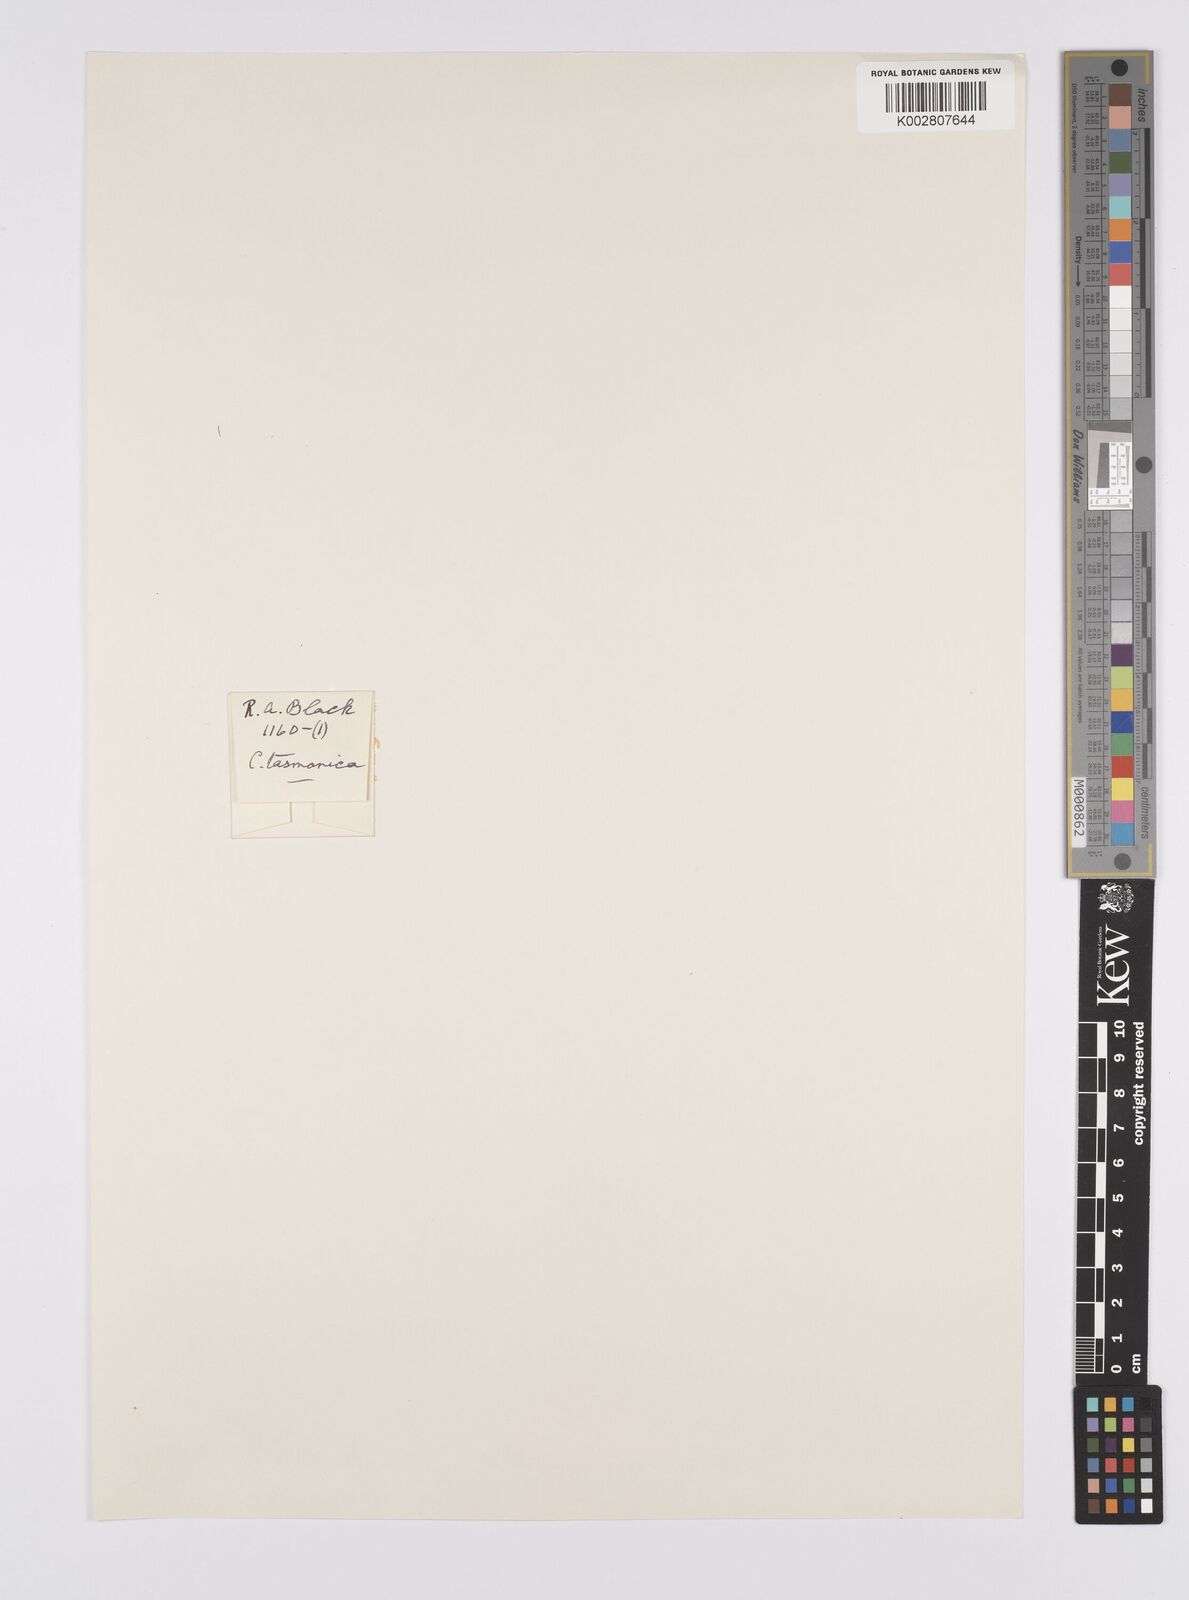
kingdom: Plantae
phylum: Tracheophyta
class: Liliopsida
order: Poales
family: Cyperaceae
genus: Carex
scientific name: Carex tasmanica
